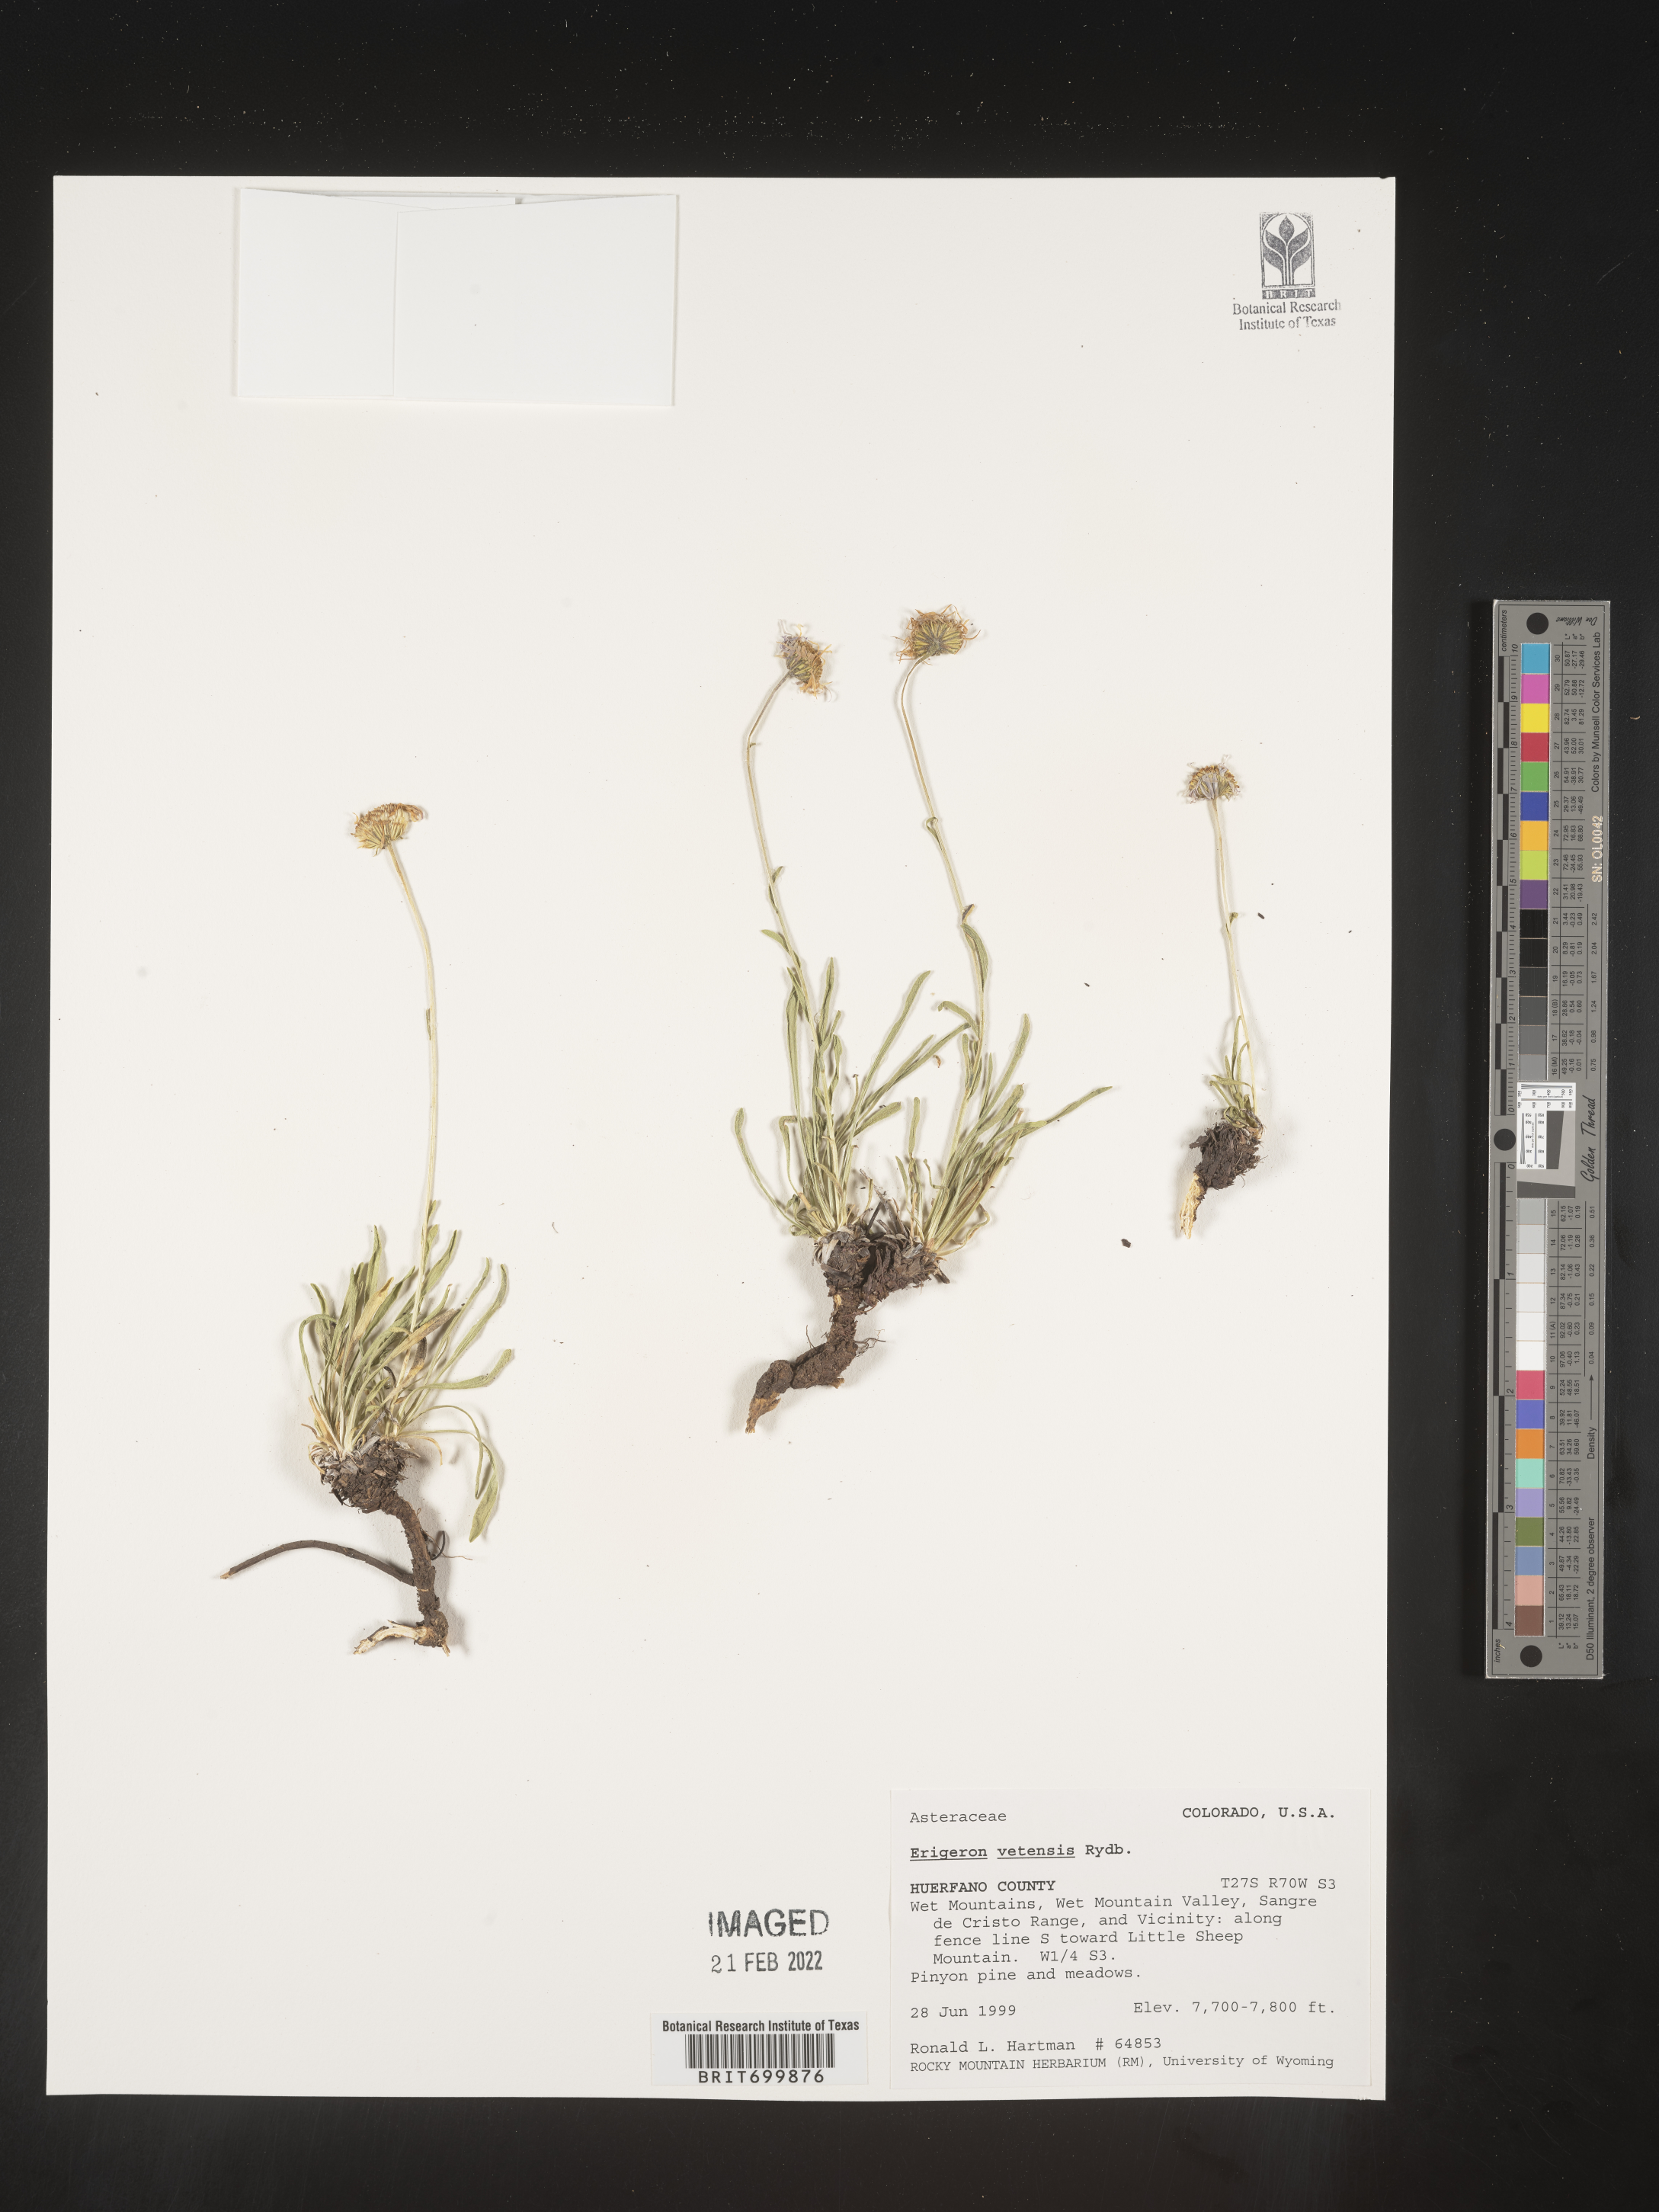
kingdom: Plantae
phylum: Tracheophyta
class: Magnoliopsida
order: Asterales
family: Asteraceae
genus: Erigeron
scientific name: Erigeron vetensis
